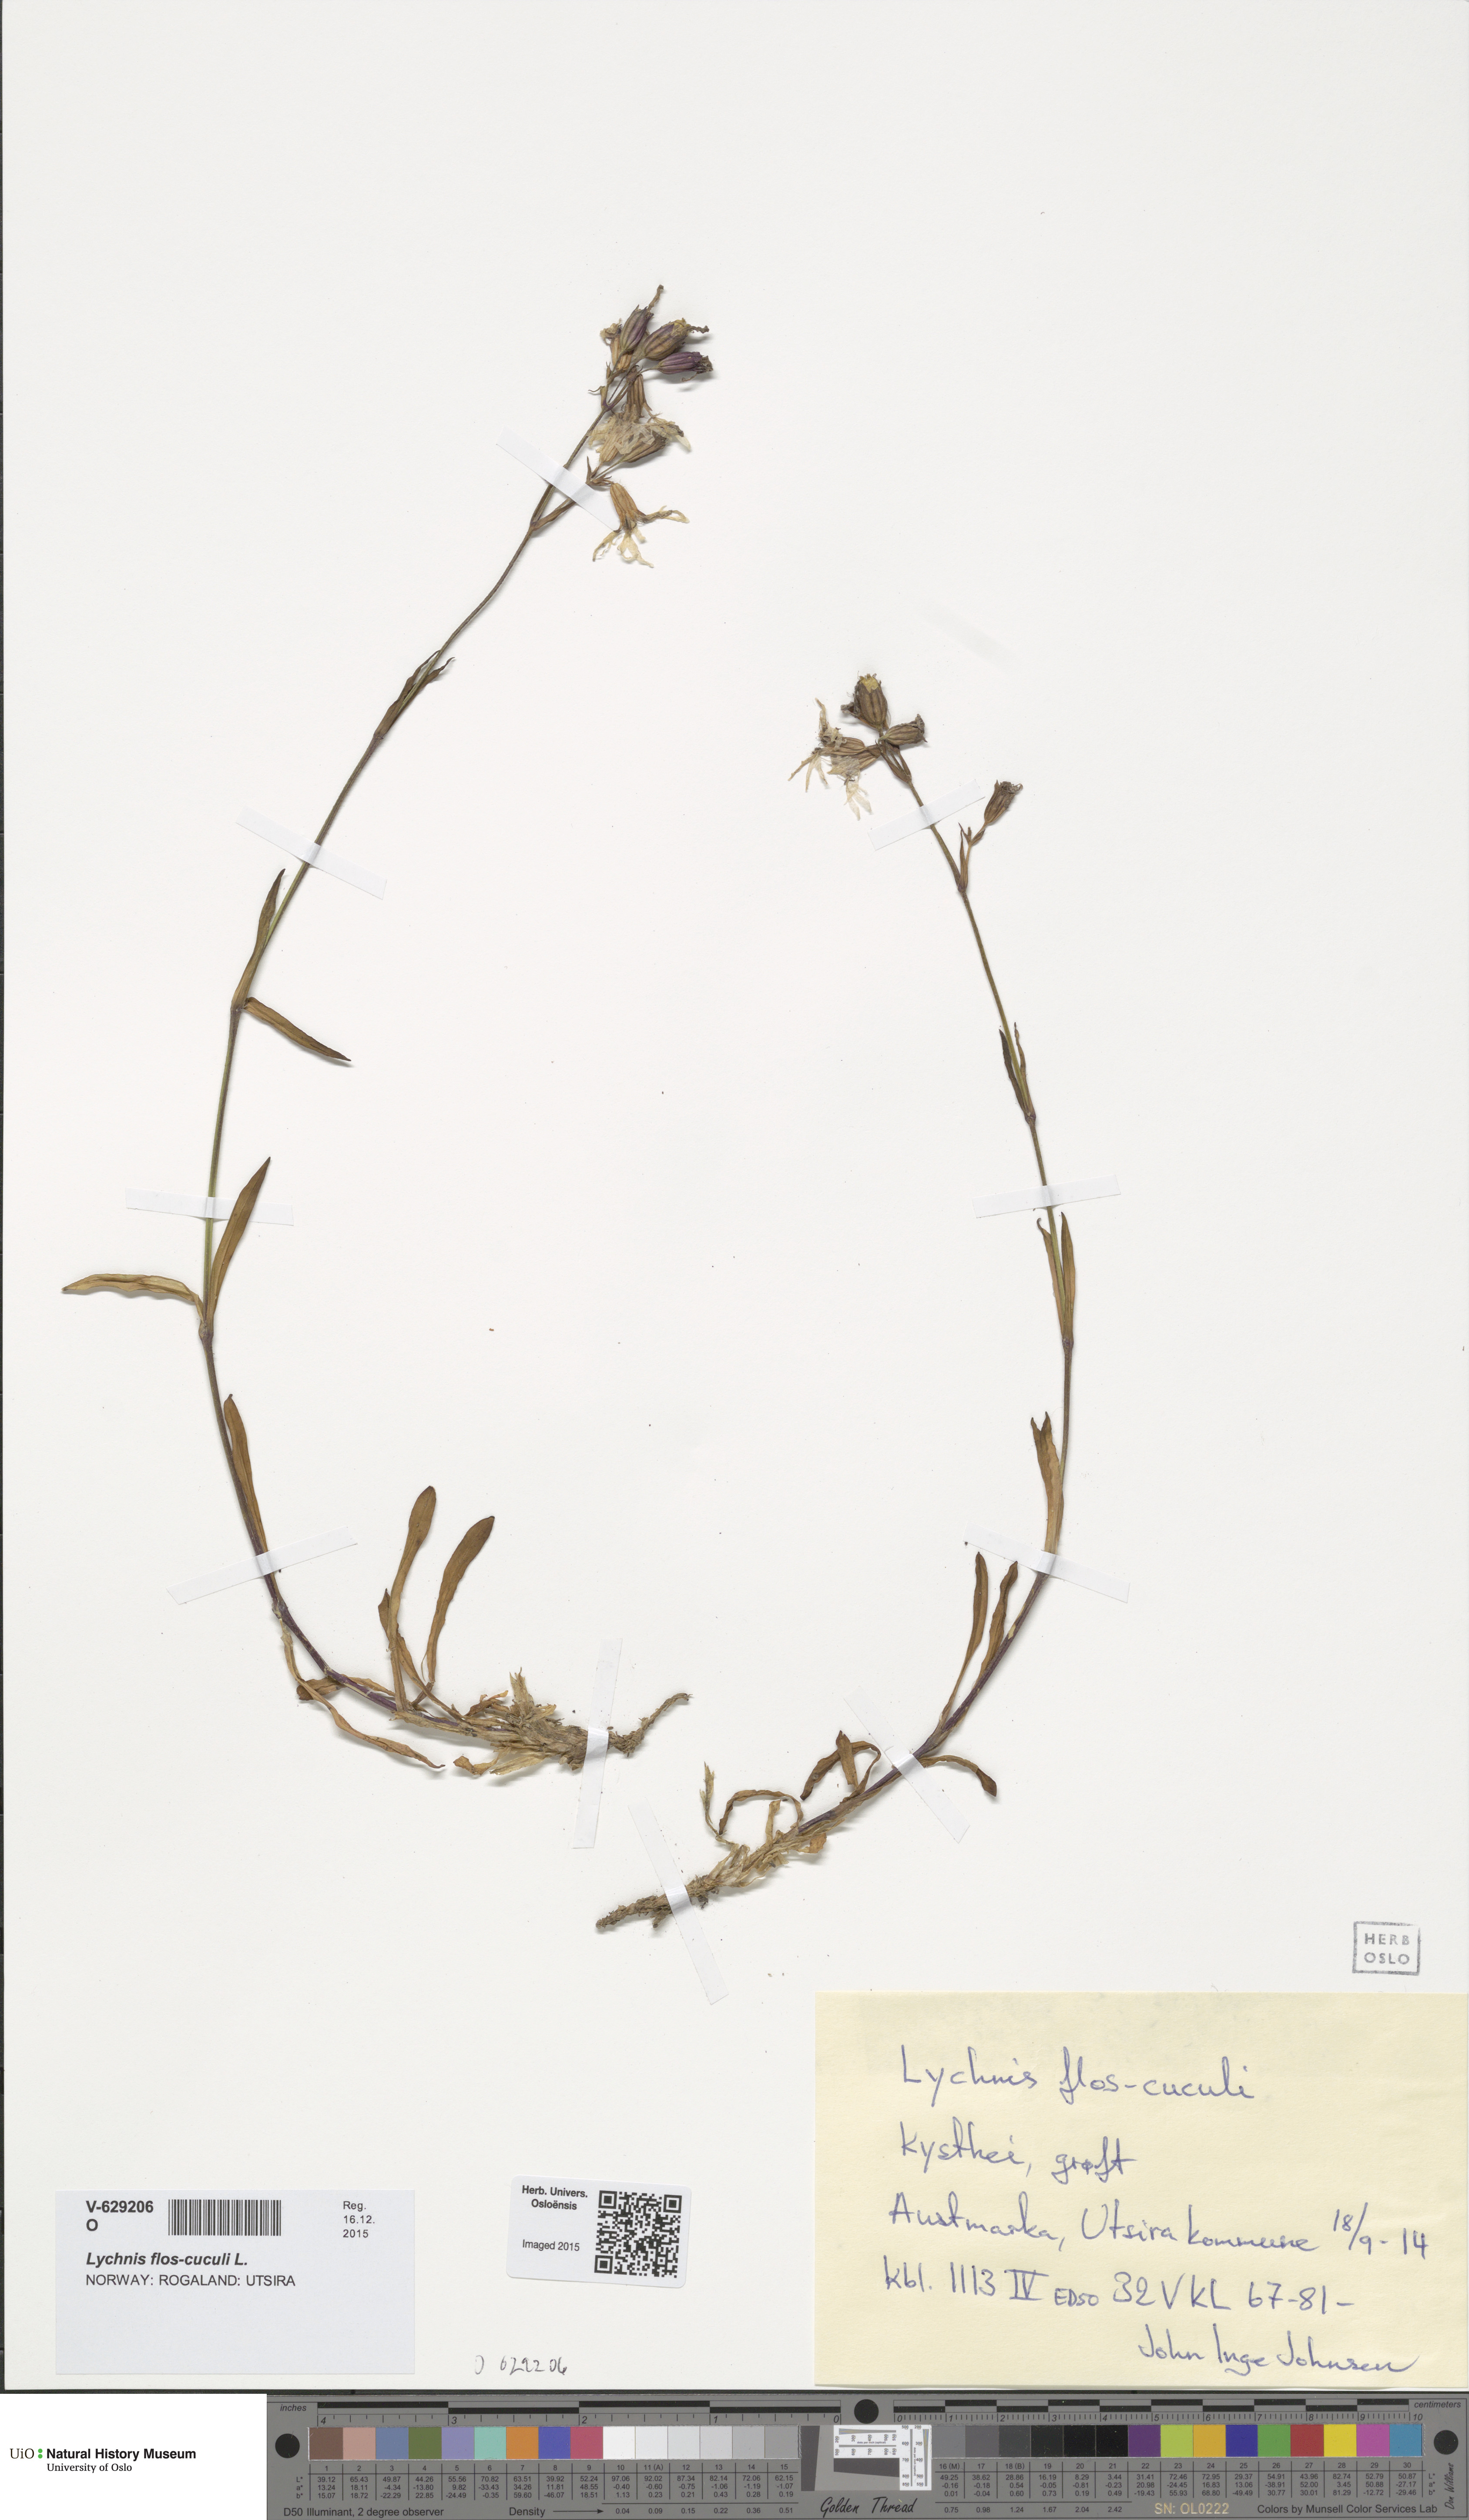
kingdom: Plantae
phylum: Tracheophyta
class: Magnoliopsida
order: Caryophyllales
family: Caryophyllaceae
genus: Silene
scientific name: Silene flos-cuculi
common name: Ragged-robin
